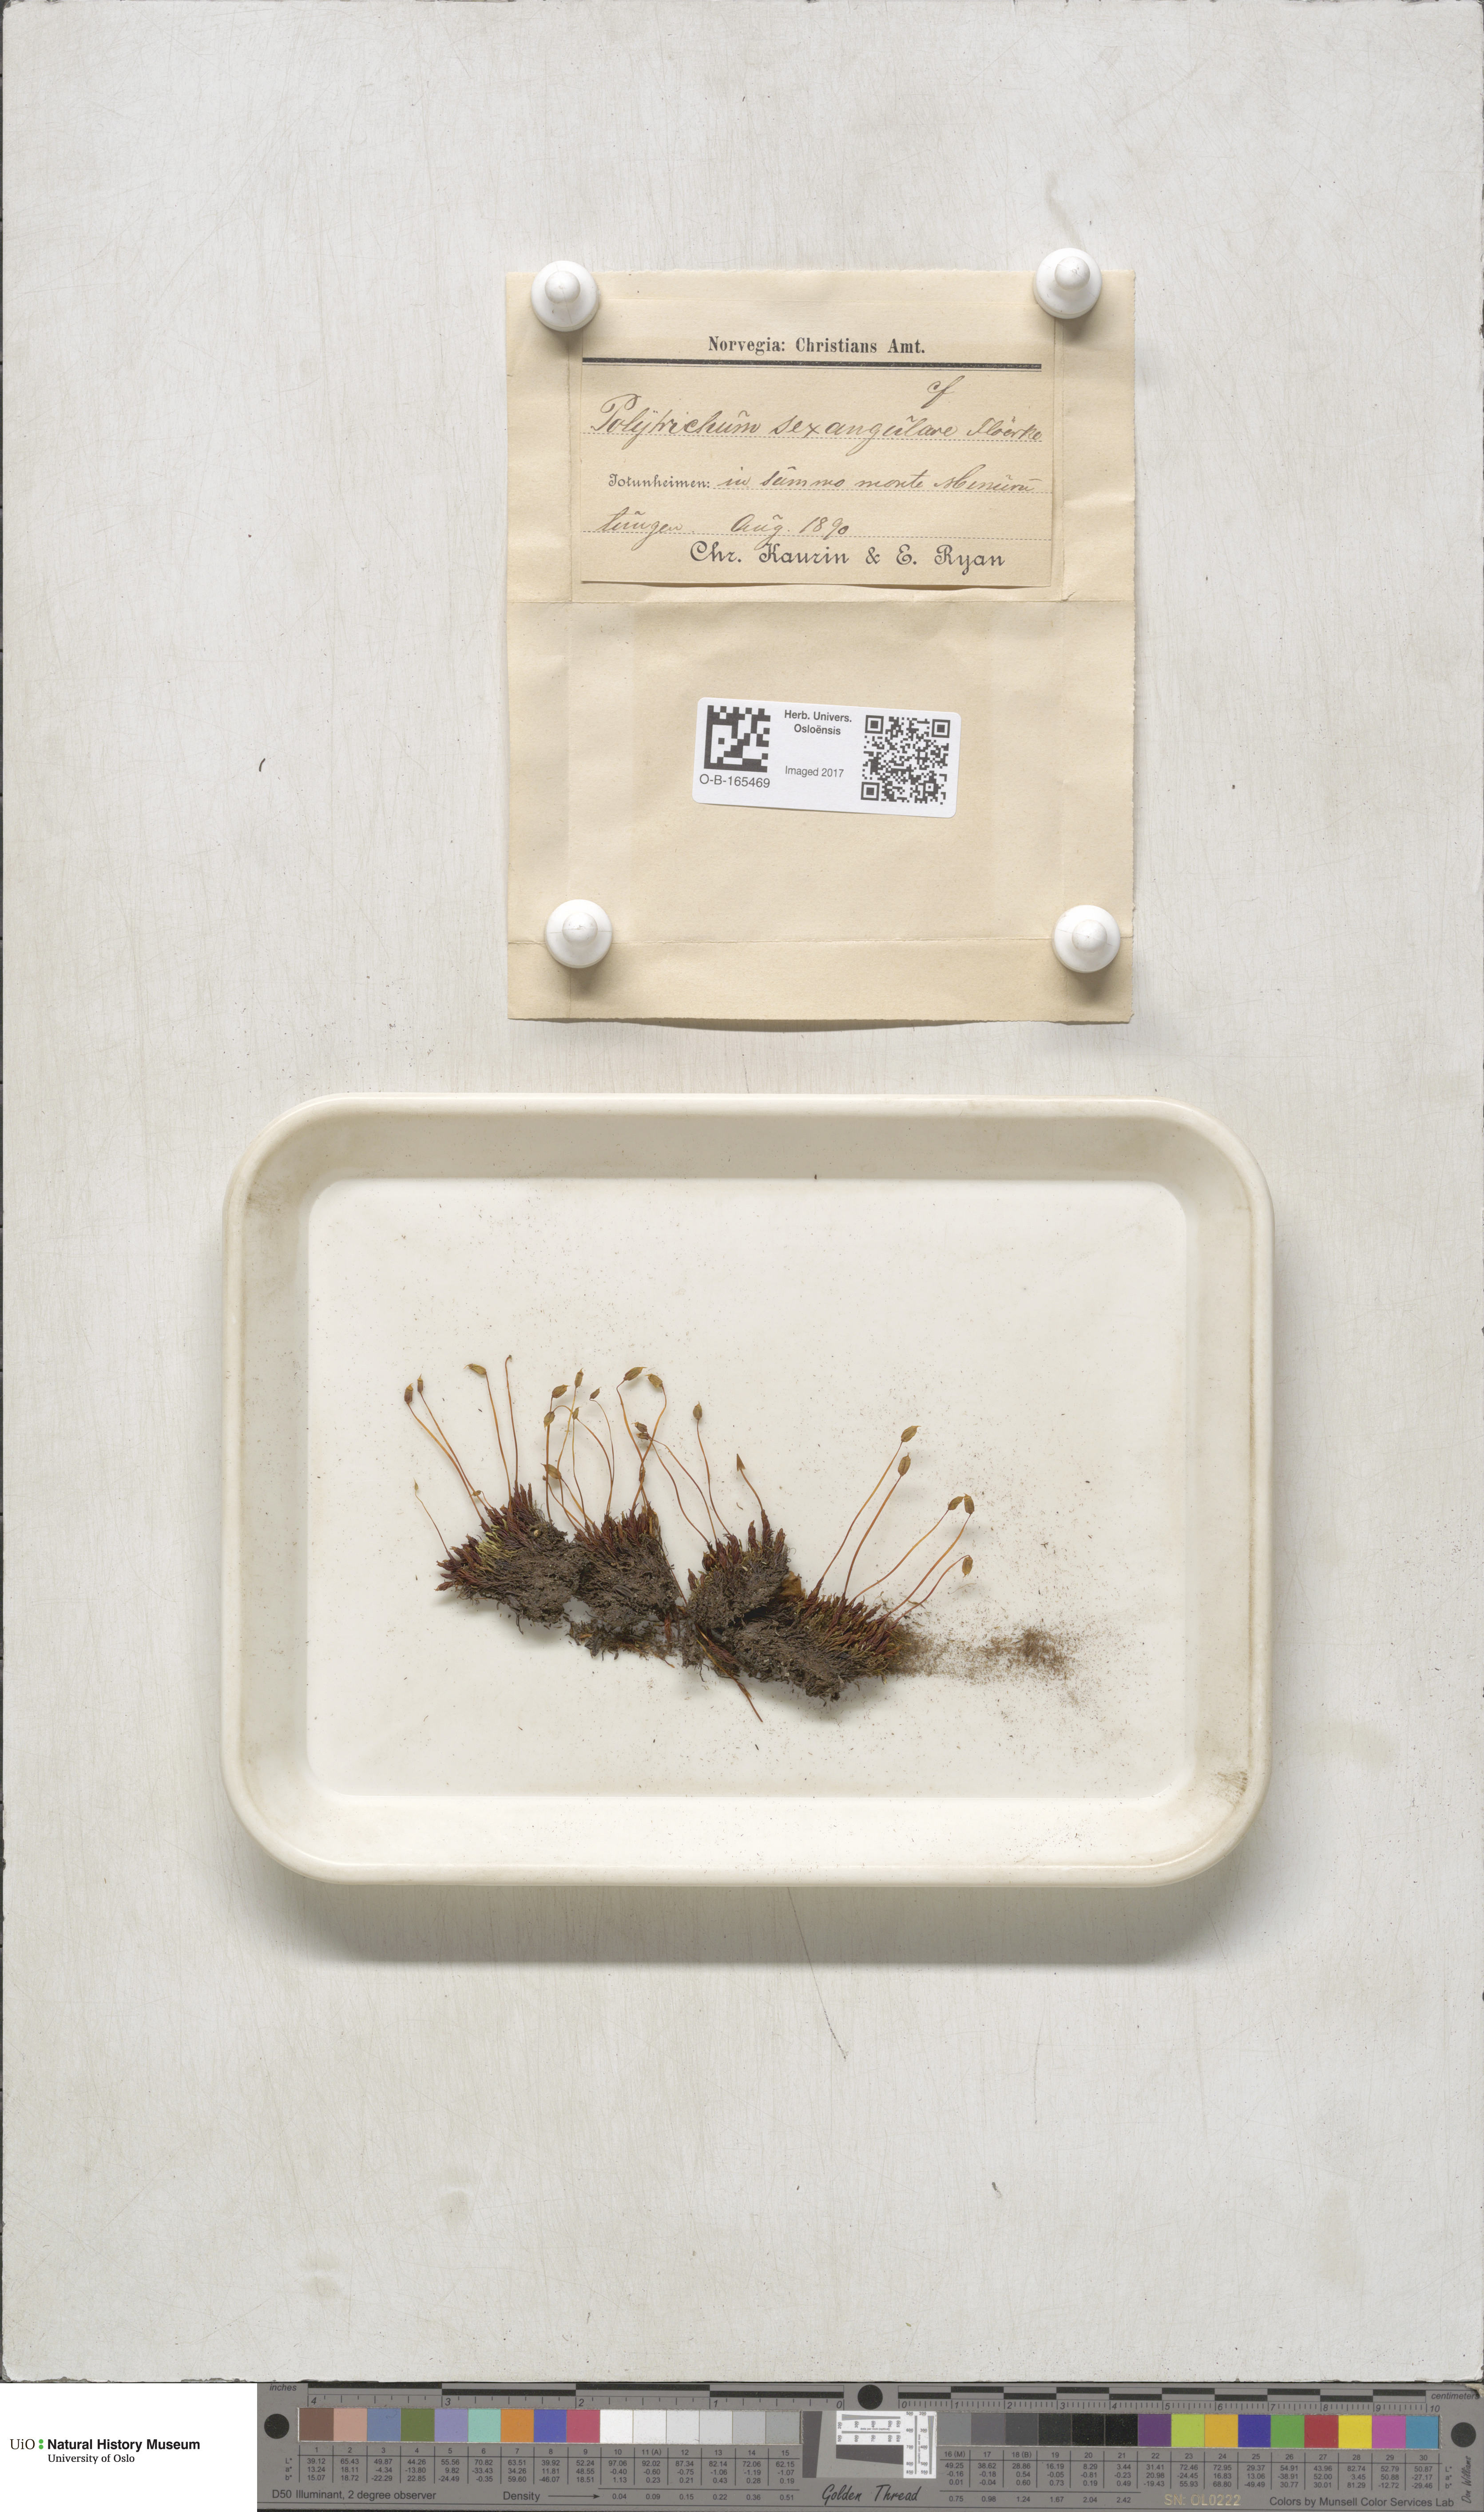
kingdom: Plantae
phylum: Bryophyta
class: Polytrichopsida
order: Polytrichales
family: Polytrichaceae
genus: Polytrichastrum
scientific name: Polytrichastrum sexangulare
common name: Northern haircap
